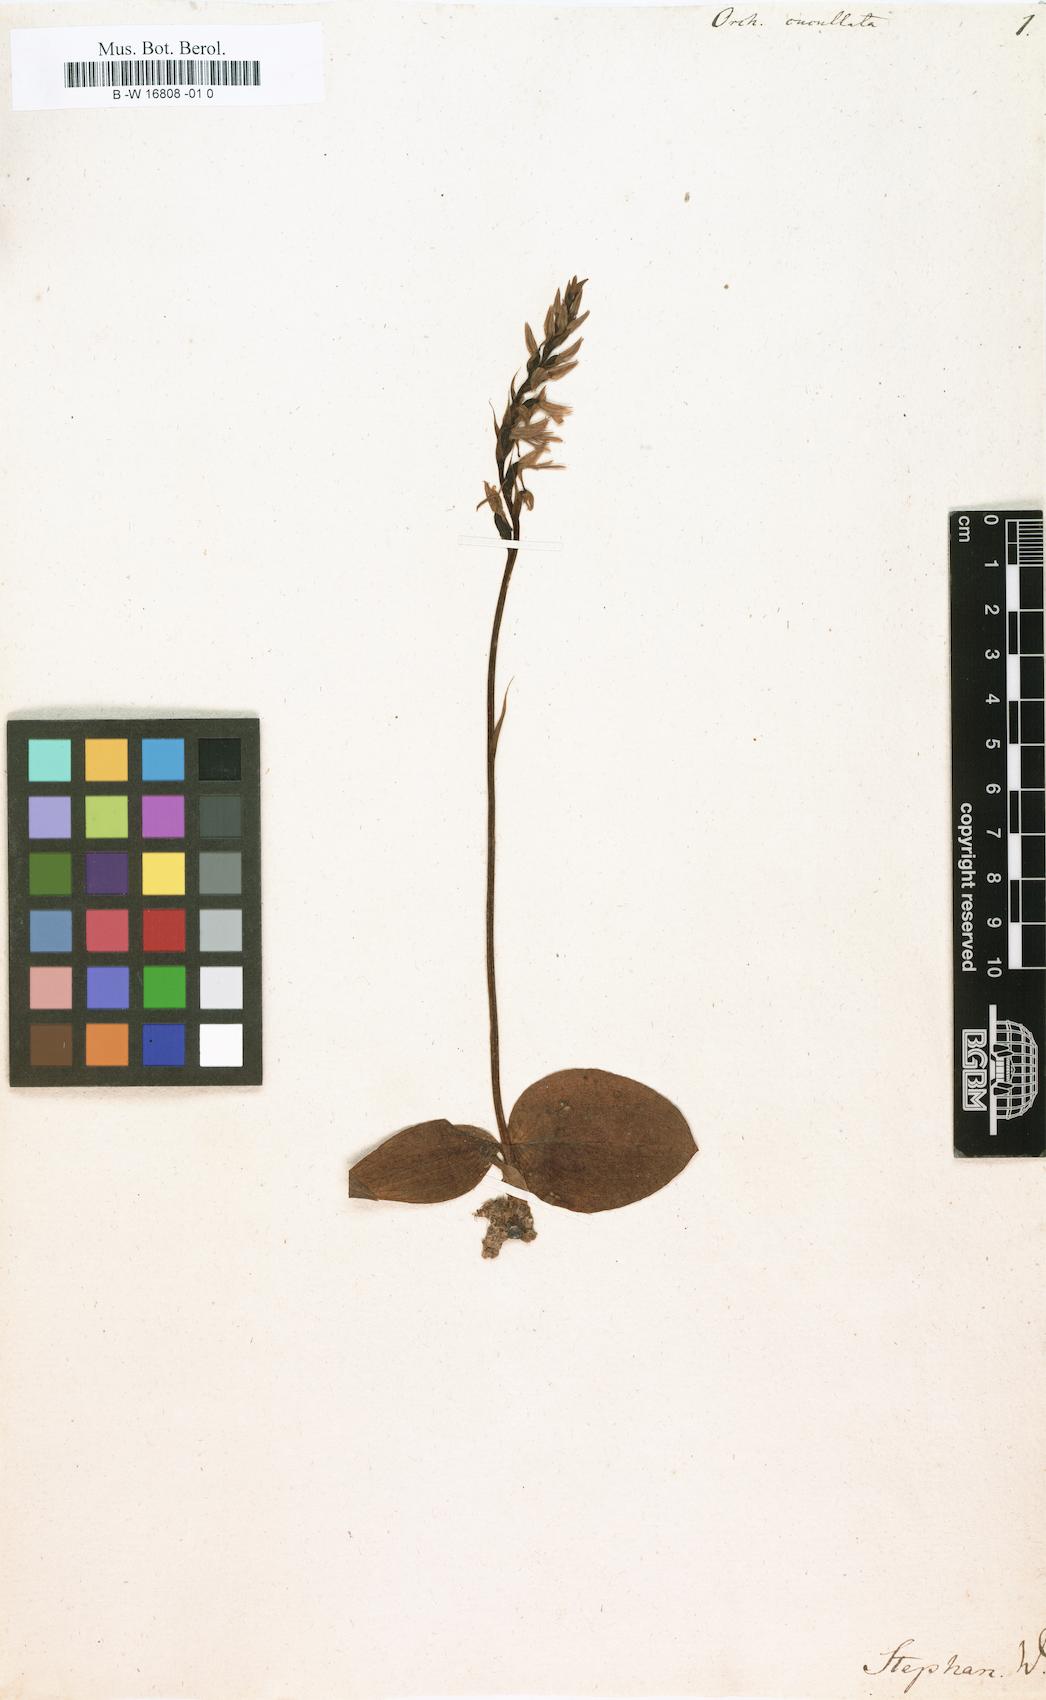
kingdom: Plantae
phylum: Tracheophyta
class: Liliopsida
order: Asparagales
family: Orchidaceae
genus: Hemipilia
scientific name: Hemipilia cucullata
